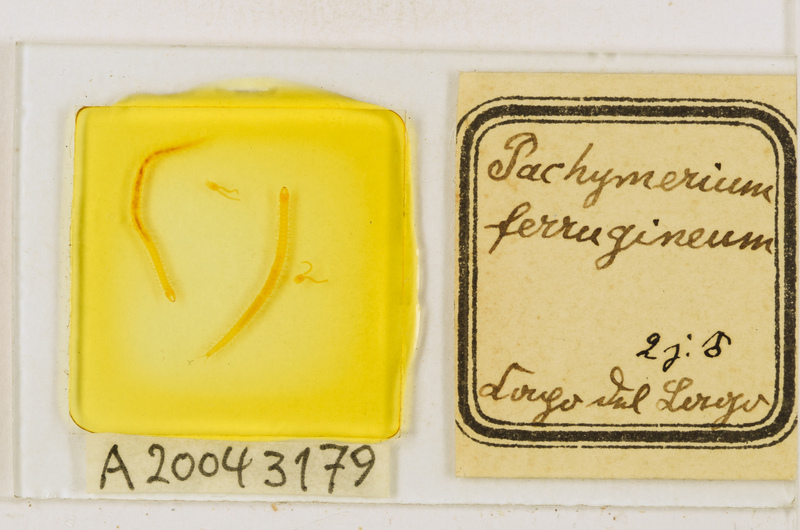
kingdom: Animalia
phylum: Arthropoda
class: Chilopoda
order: Geophilomorpha
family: Geophilidae
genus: Pachymerium
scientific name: Pachymerium ferrugineum
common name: Centipede
